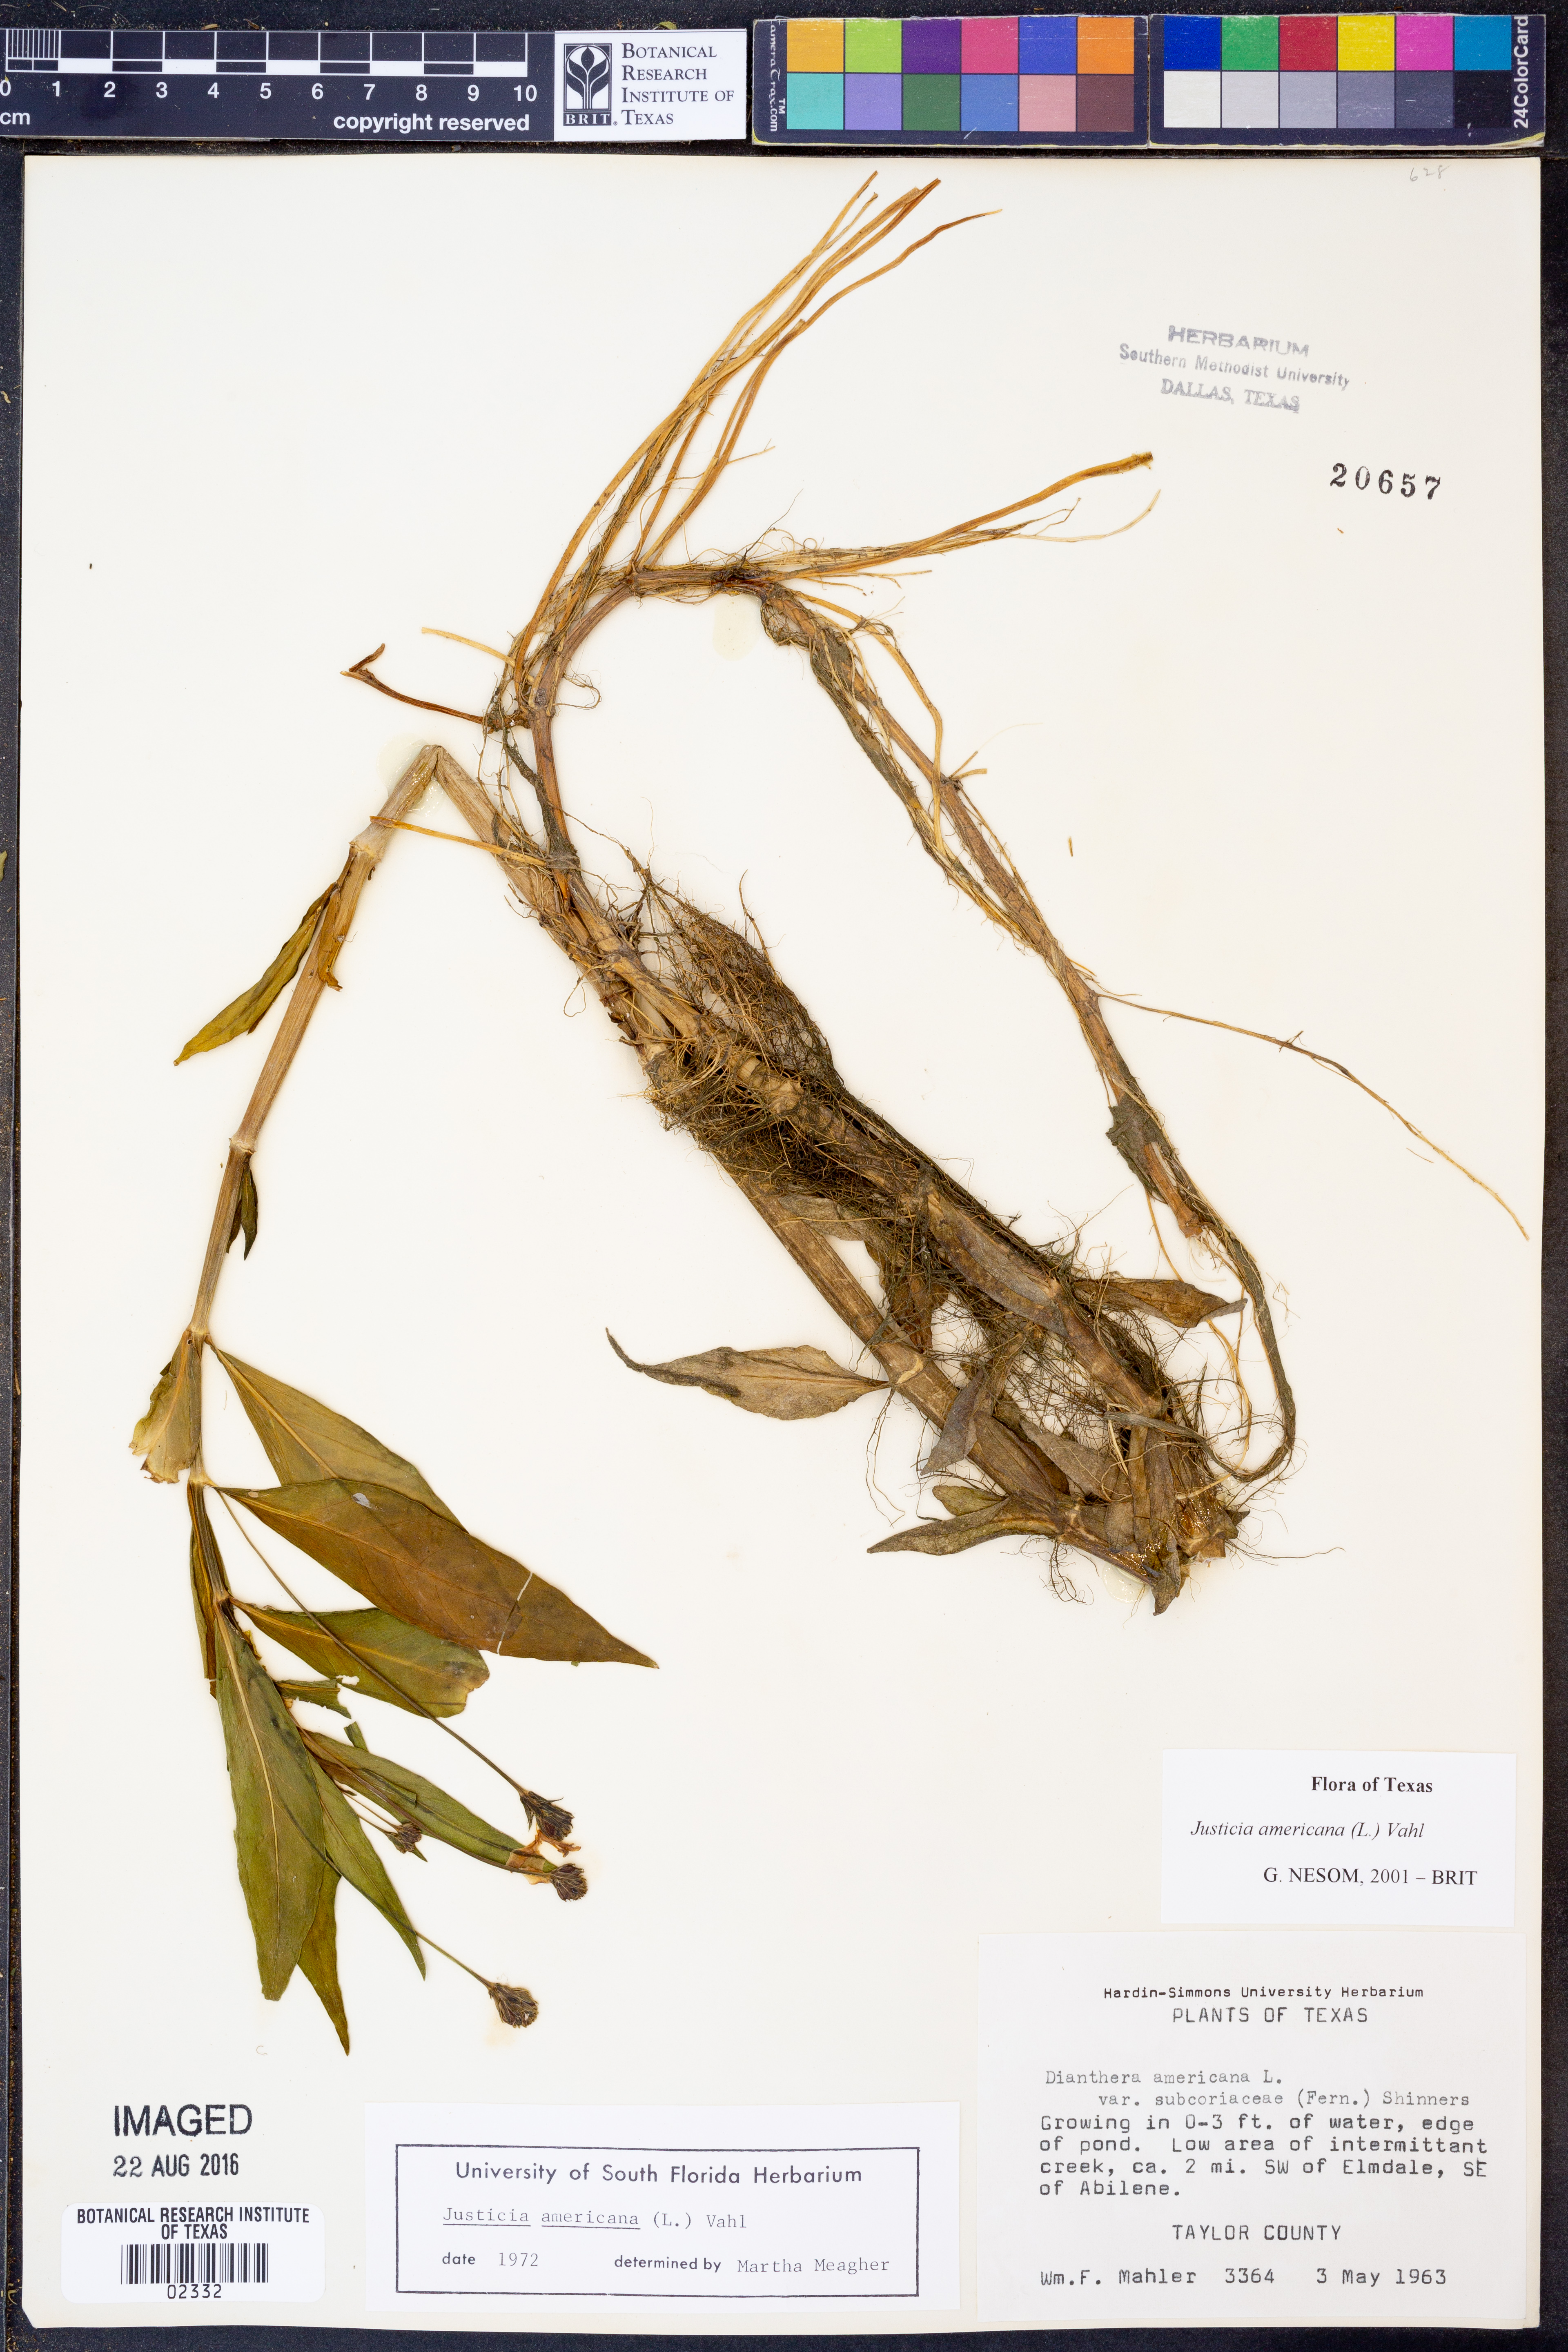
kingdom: Plantae
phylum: Tracheophyta
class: Magnoliopsida
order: Lamiales
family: Acanthaceae
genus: Dianthera
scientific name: Dianthera americana
